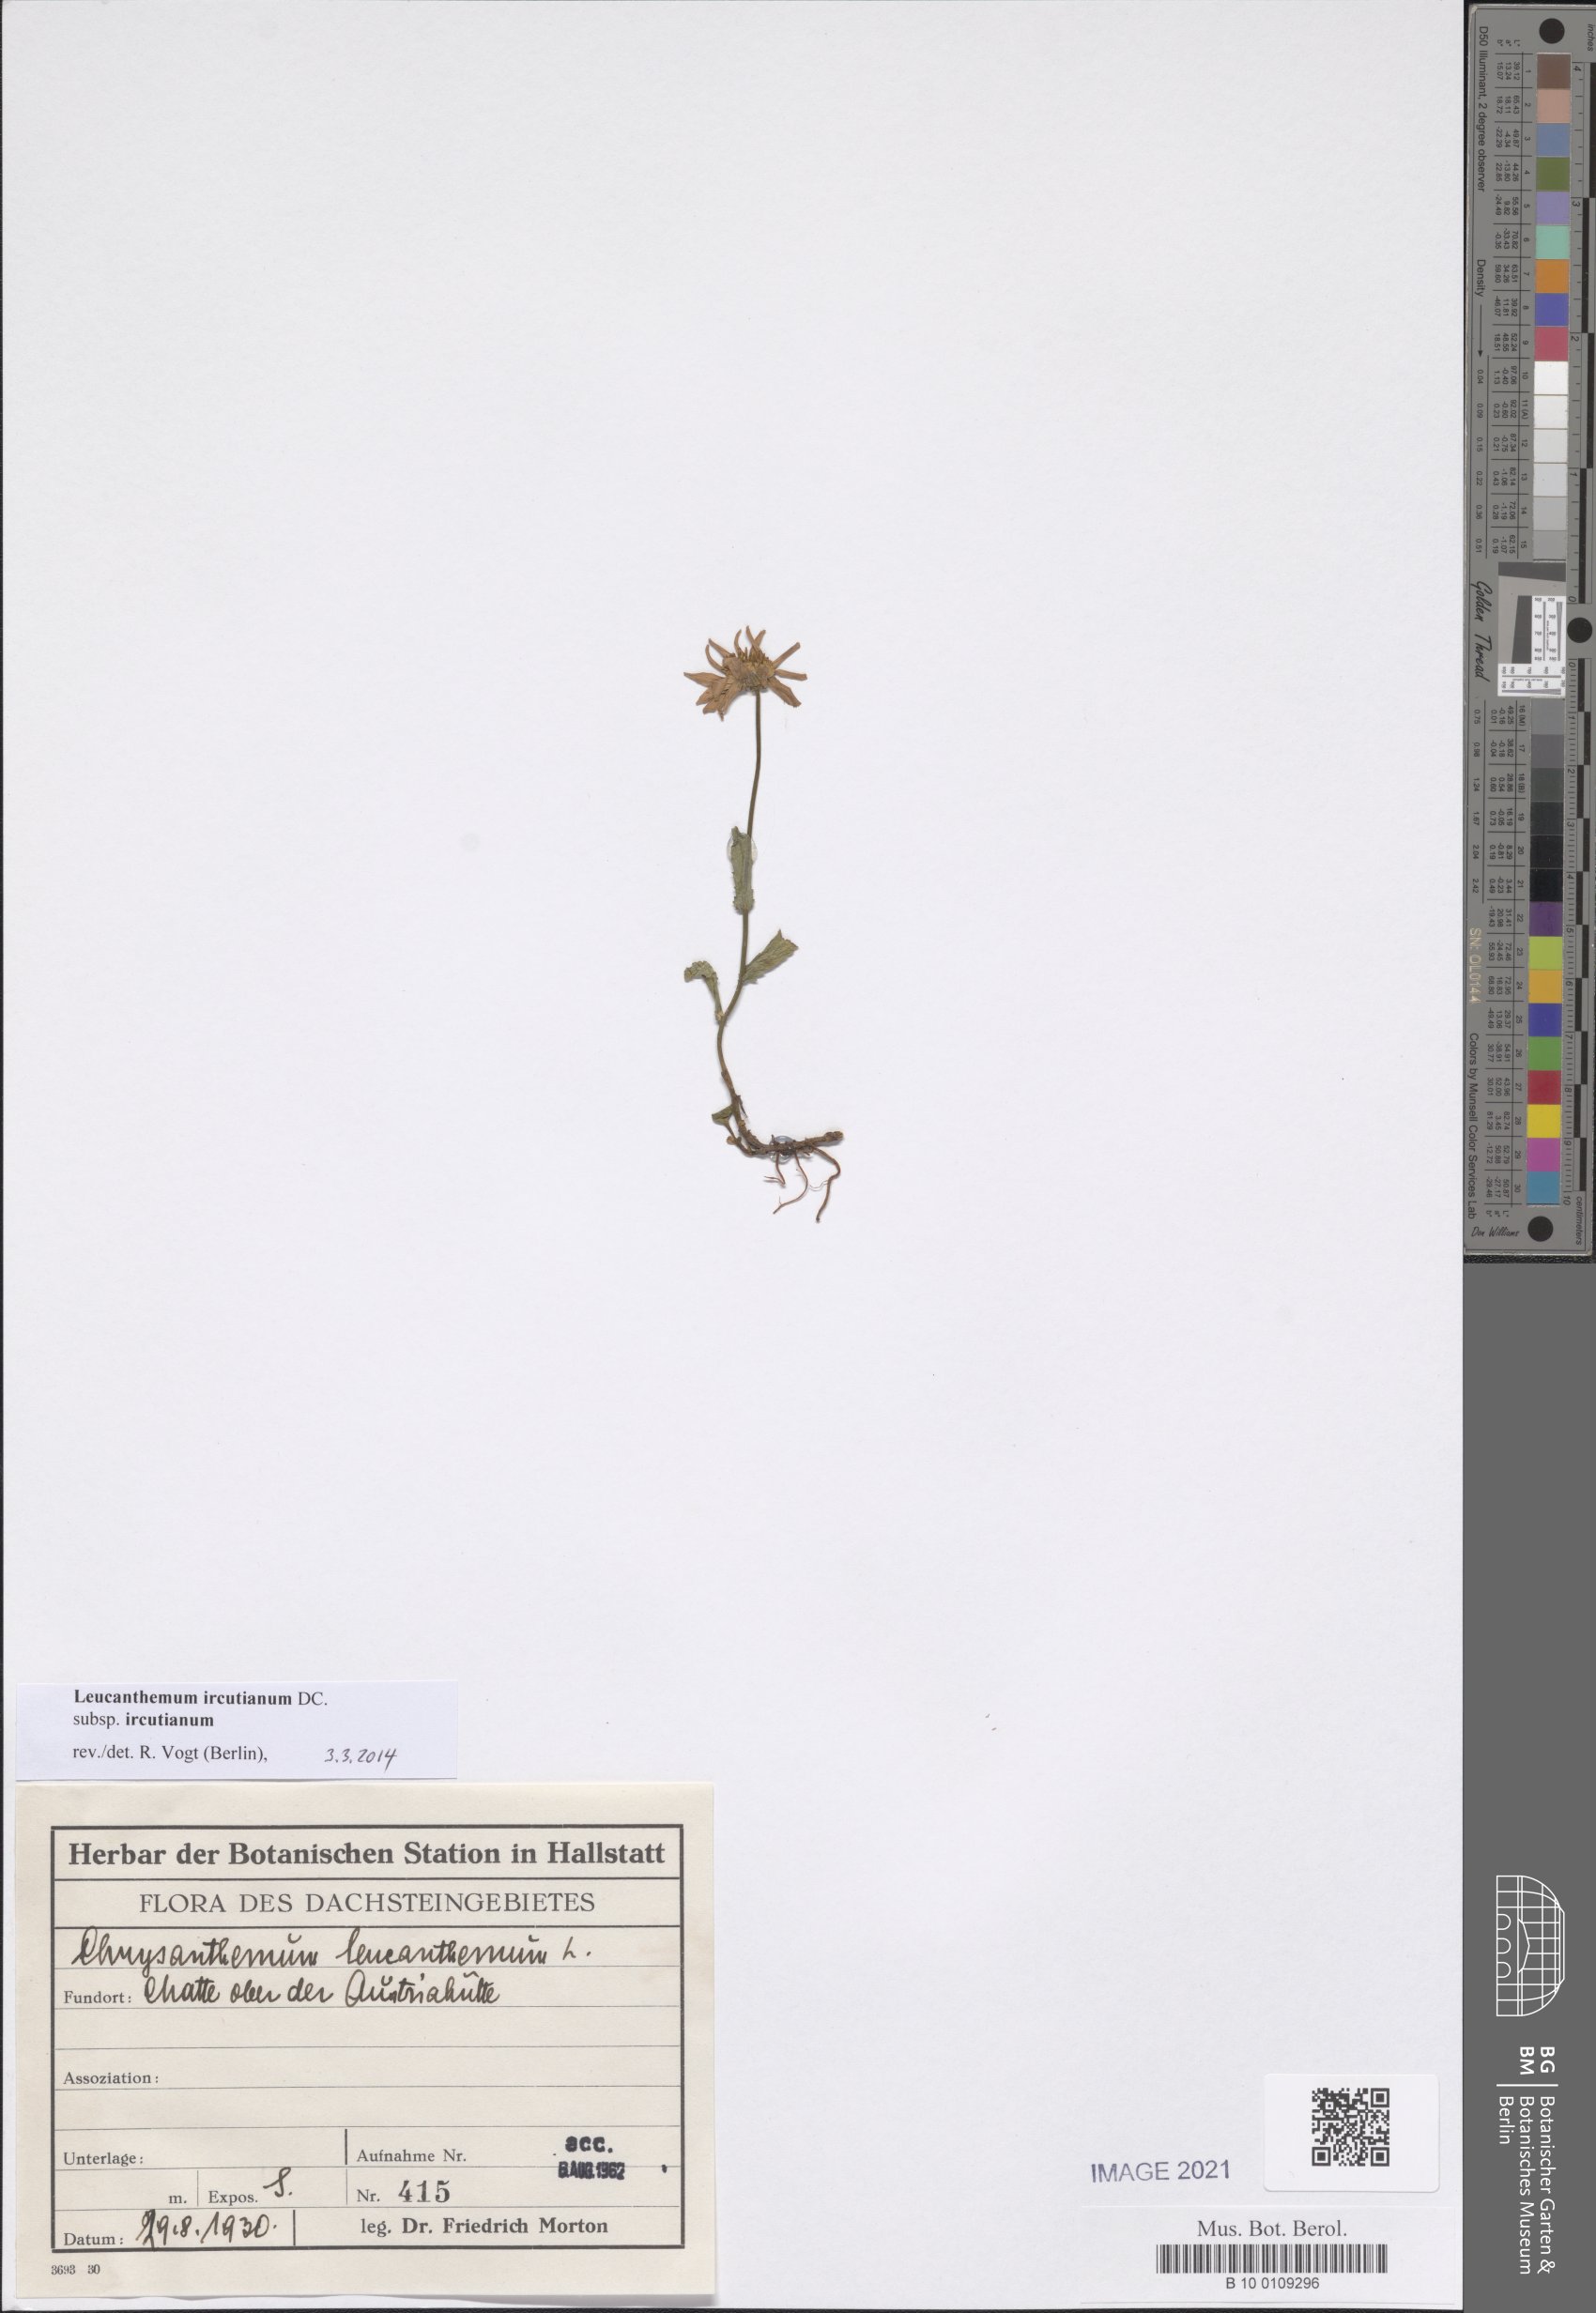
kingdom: Plantae
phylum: Tracheophyta
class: Magnoliopsida
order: Asterales
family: Asteraceae
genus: Leucanthemum
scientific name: Leucanthemum ircutianum
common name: Daisy
